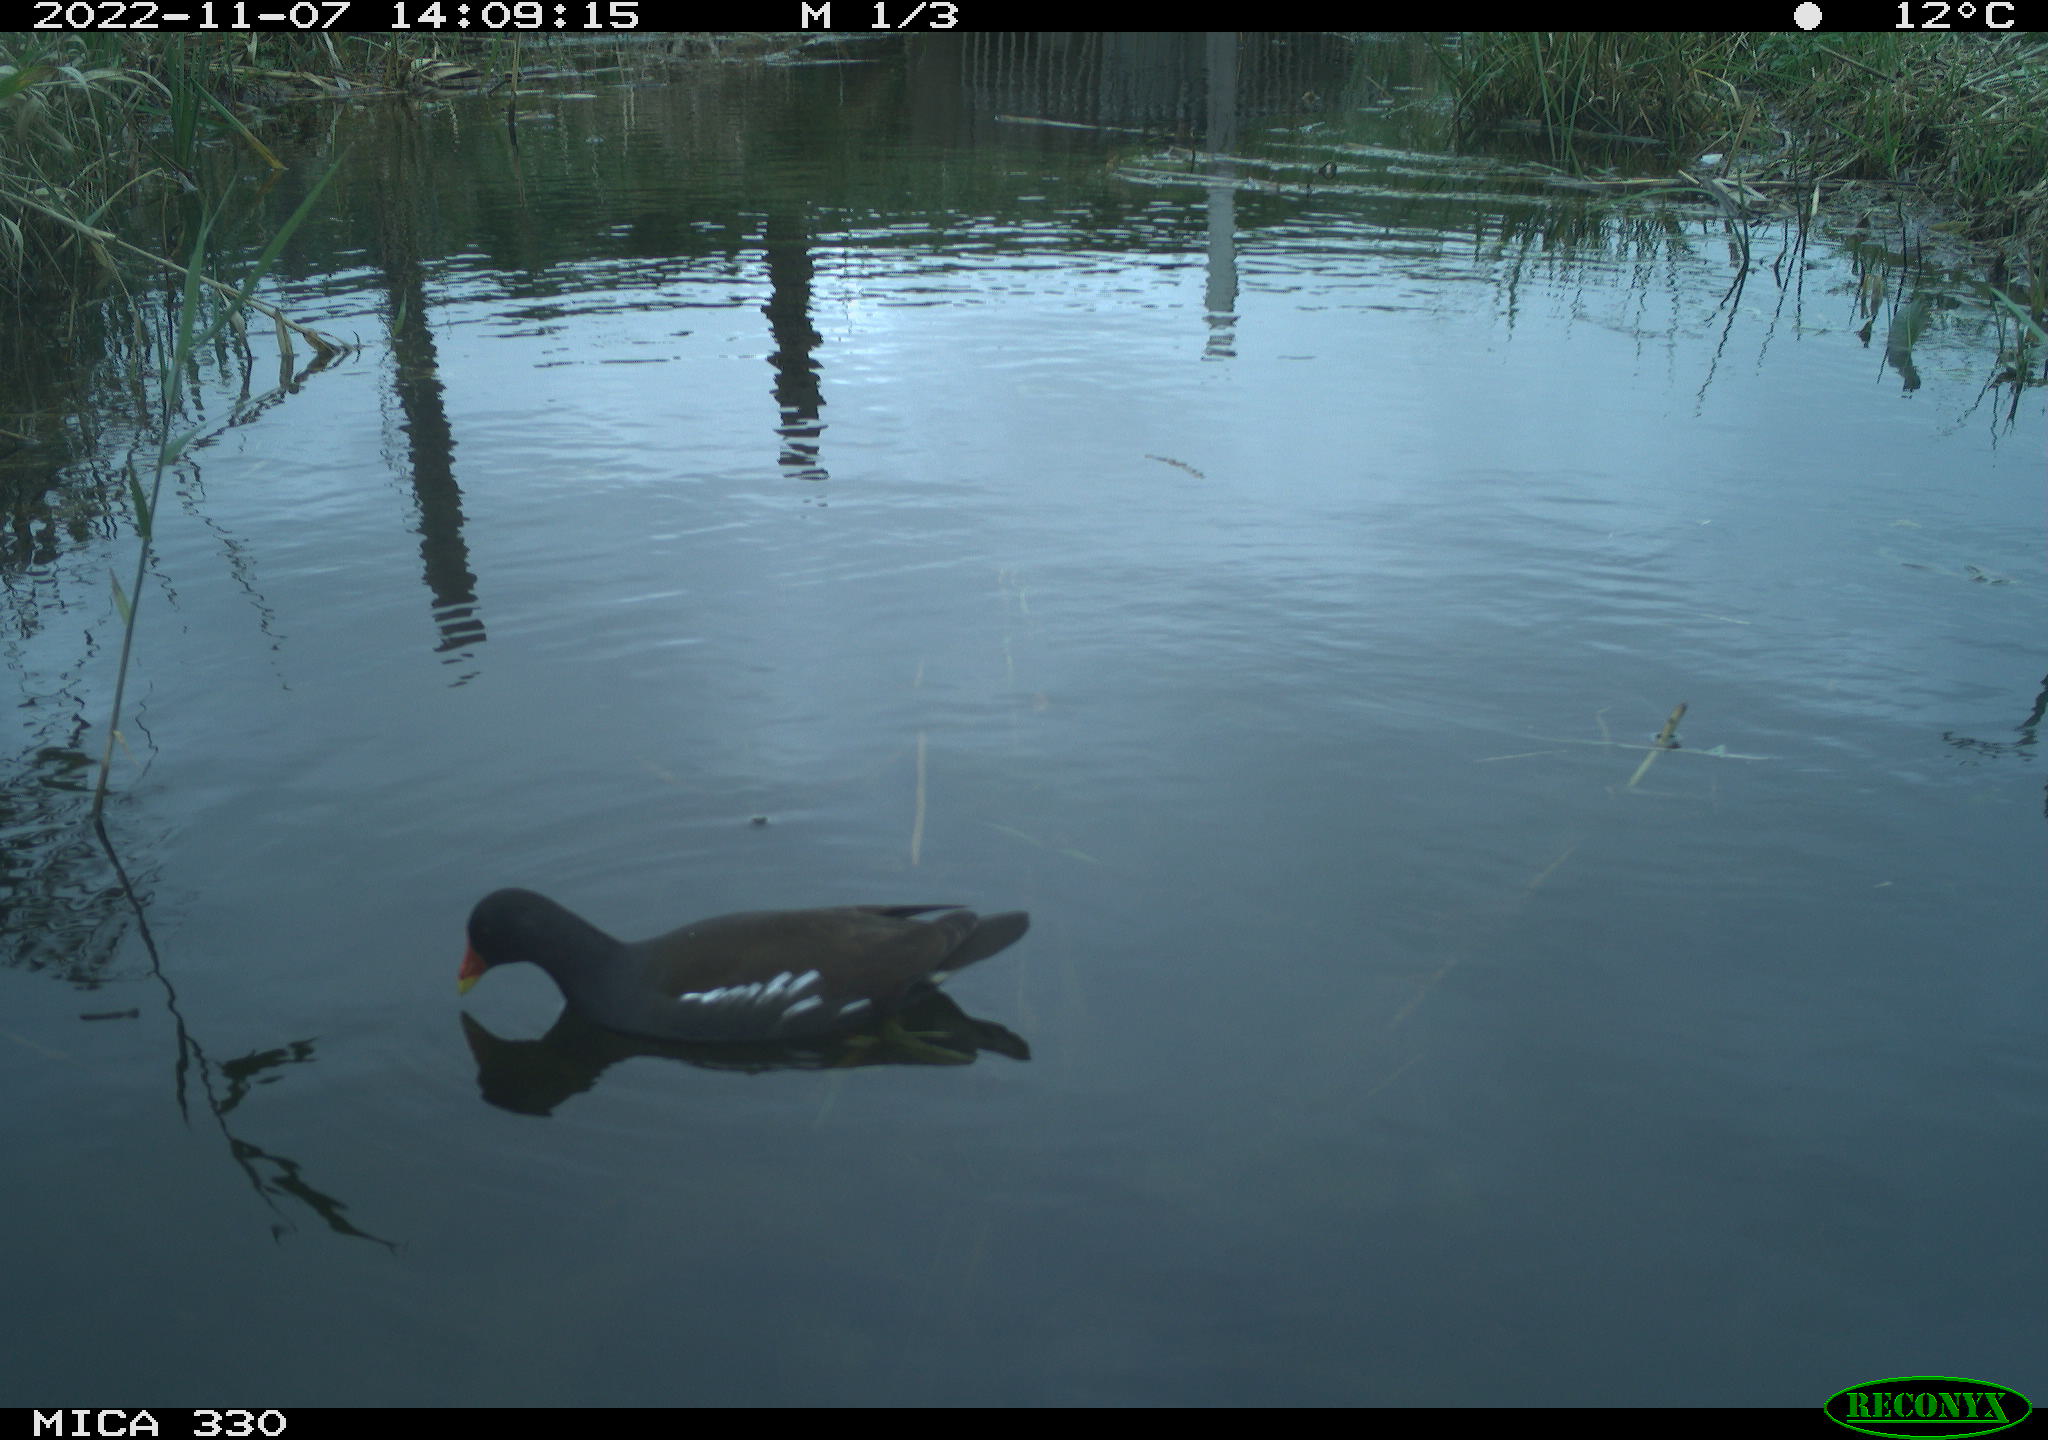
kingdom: Animalia
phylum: Chordata
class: Aves
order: Gruiformes
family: Rallidae
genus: Gallinula
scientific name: Gallinula chloropus
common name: Common moorhen
